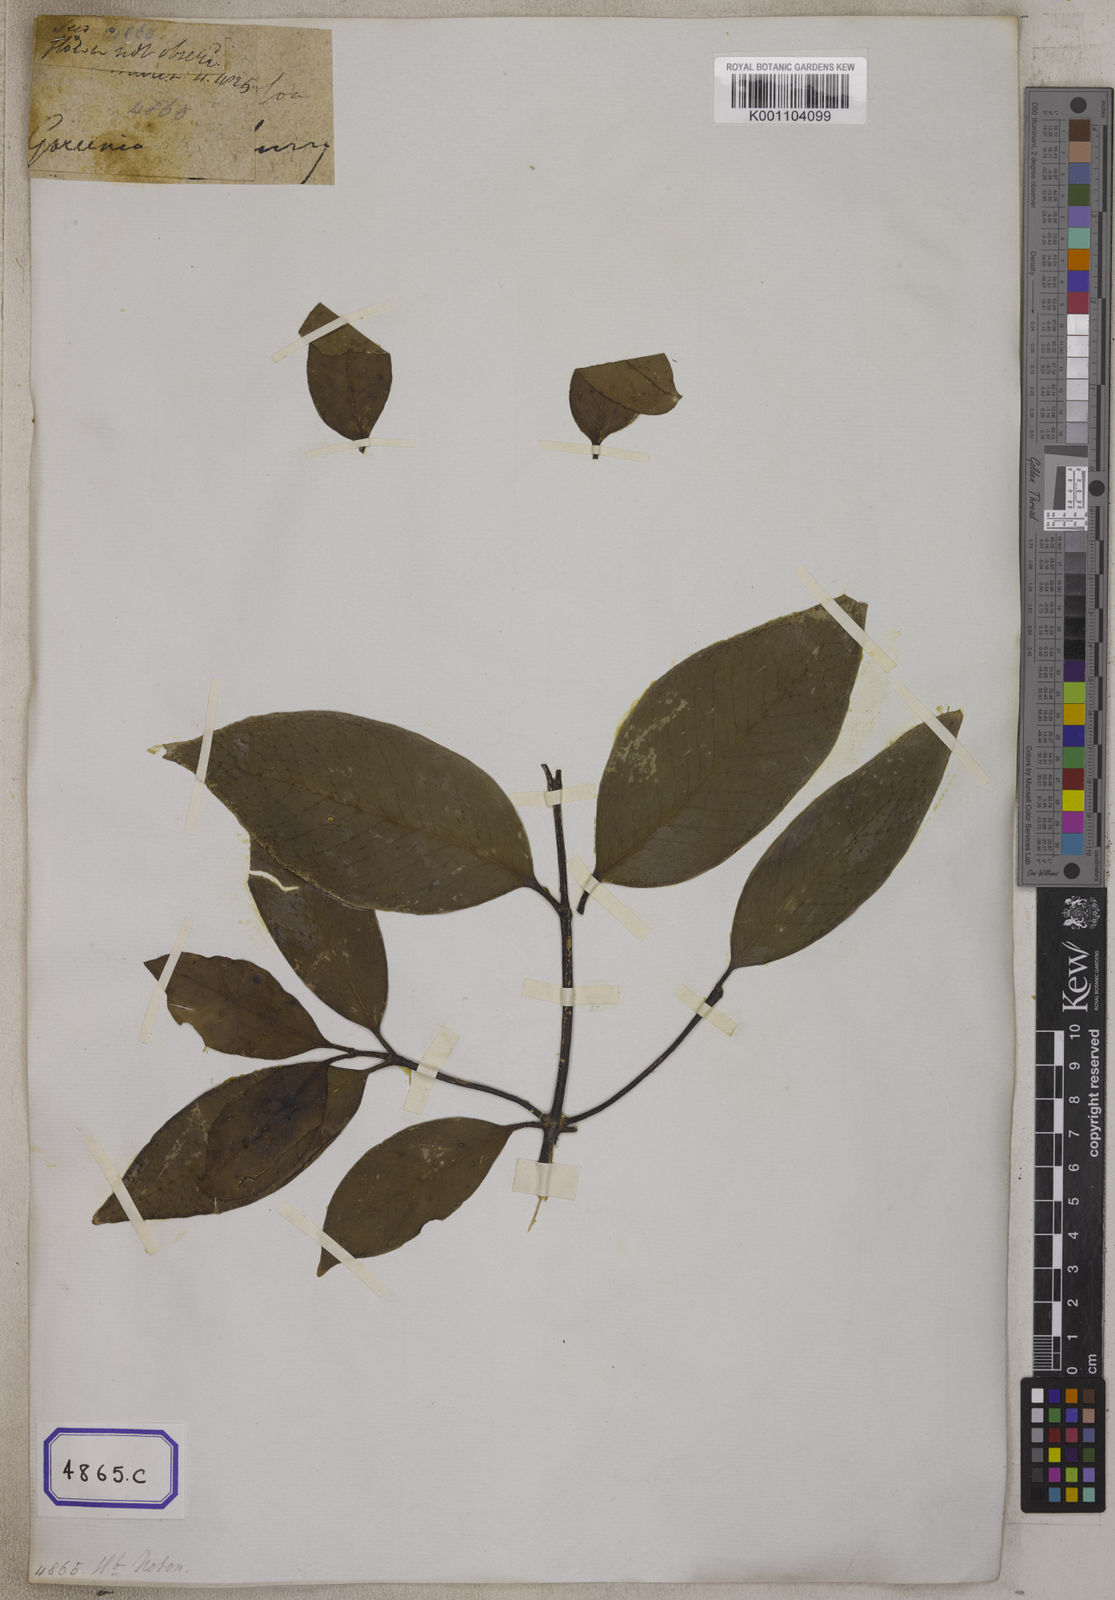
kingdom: Plantae
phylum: Tracheophyta
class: Magnoliopsida
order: Malpighiales
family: Clusiaceae
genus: Garcinia
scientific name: Garcinia gummi-gutta
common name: Malabar tamarind
